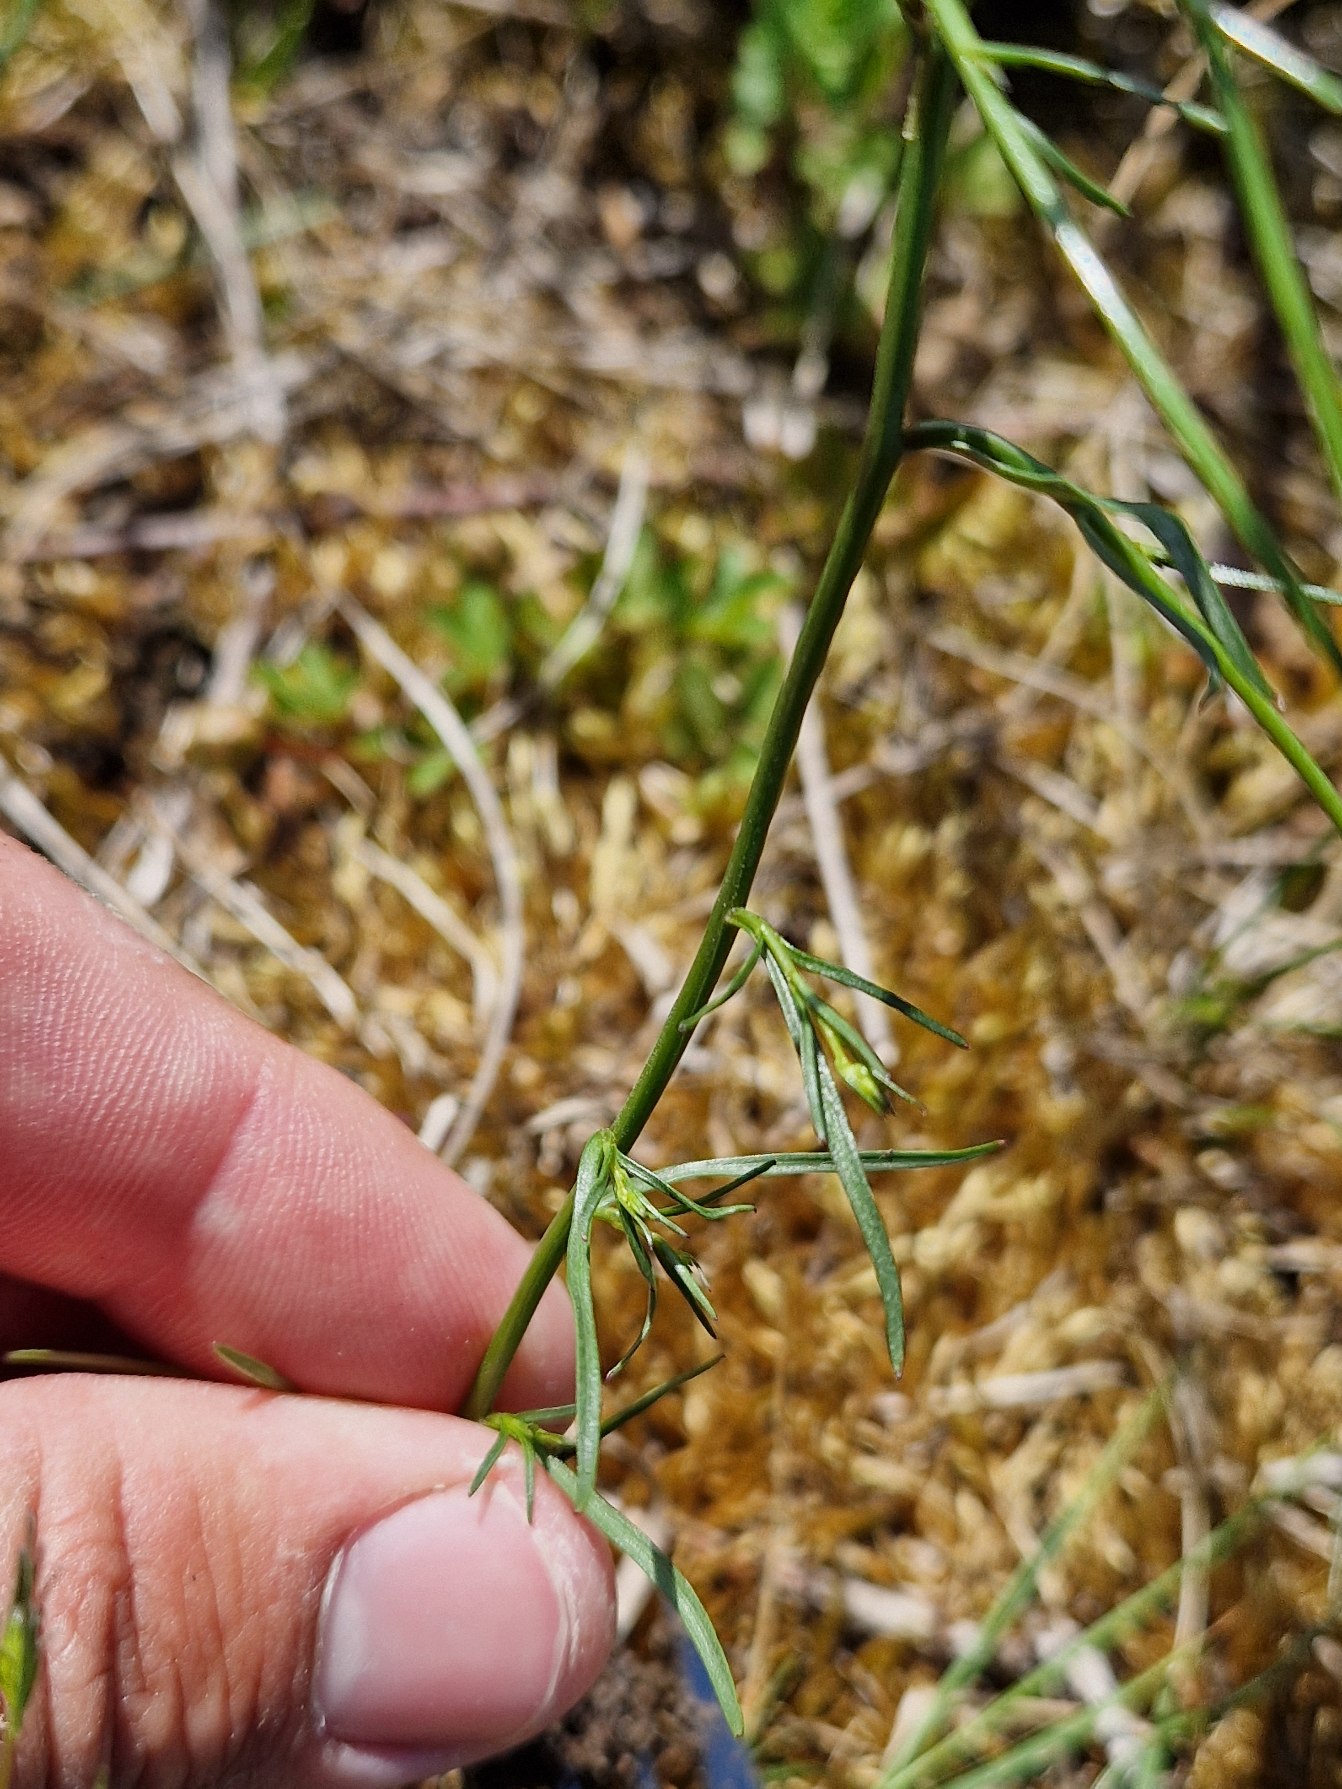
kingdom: Plantae
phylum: Tracheophyta
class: Magnoliopsida
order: Asterales
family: Campanulaceae
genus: Campanula
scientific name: Campanula rotundifolia
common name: Liden klokke
